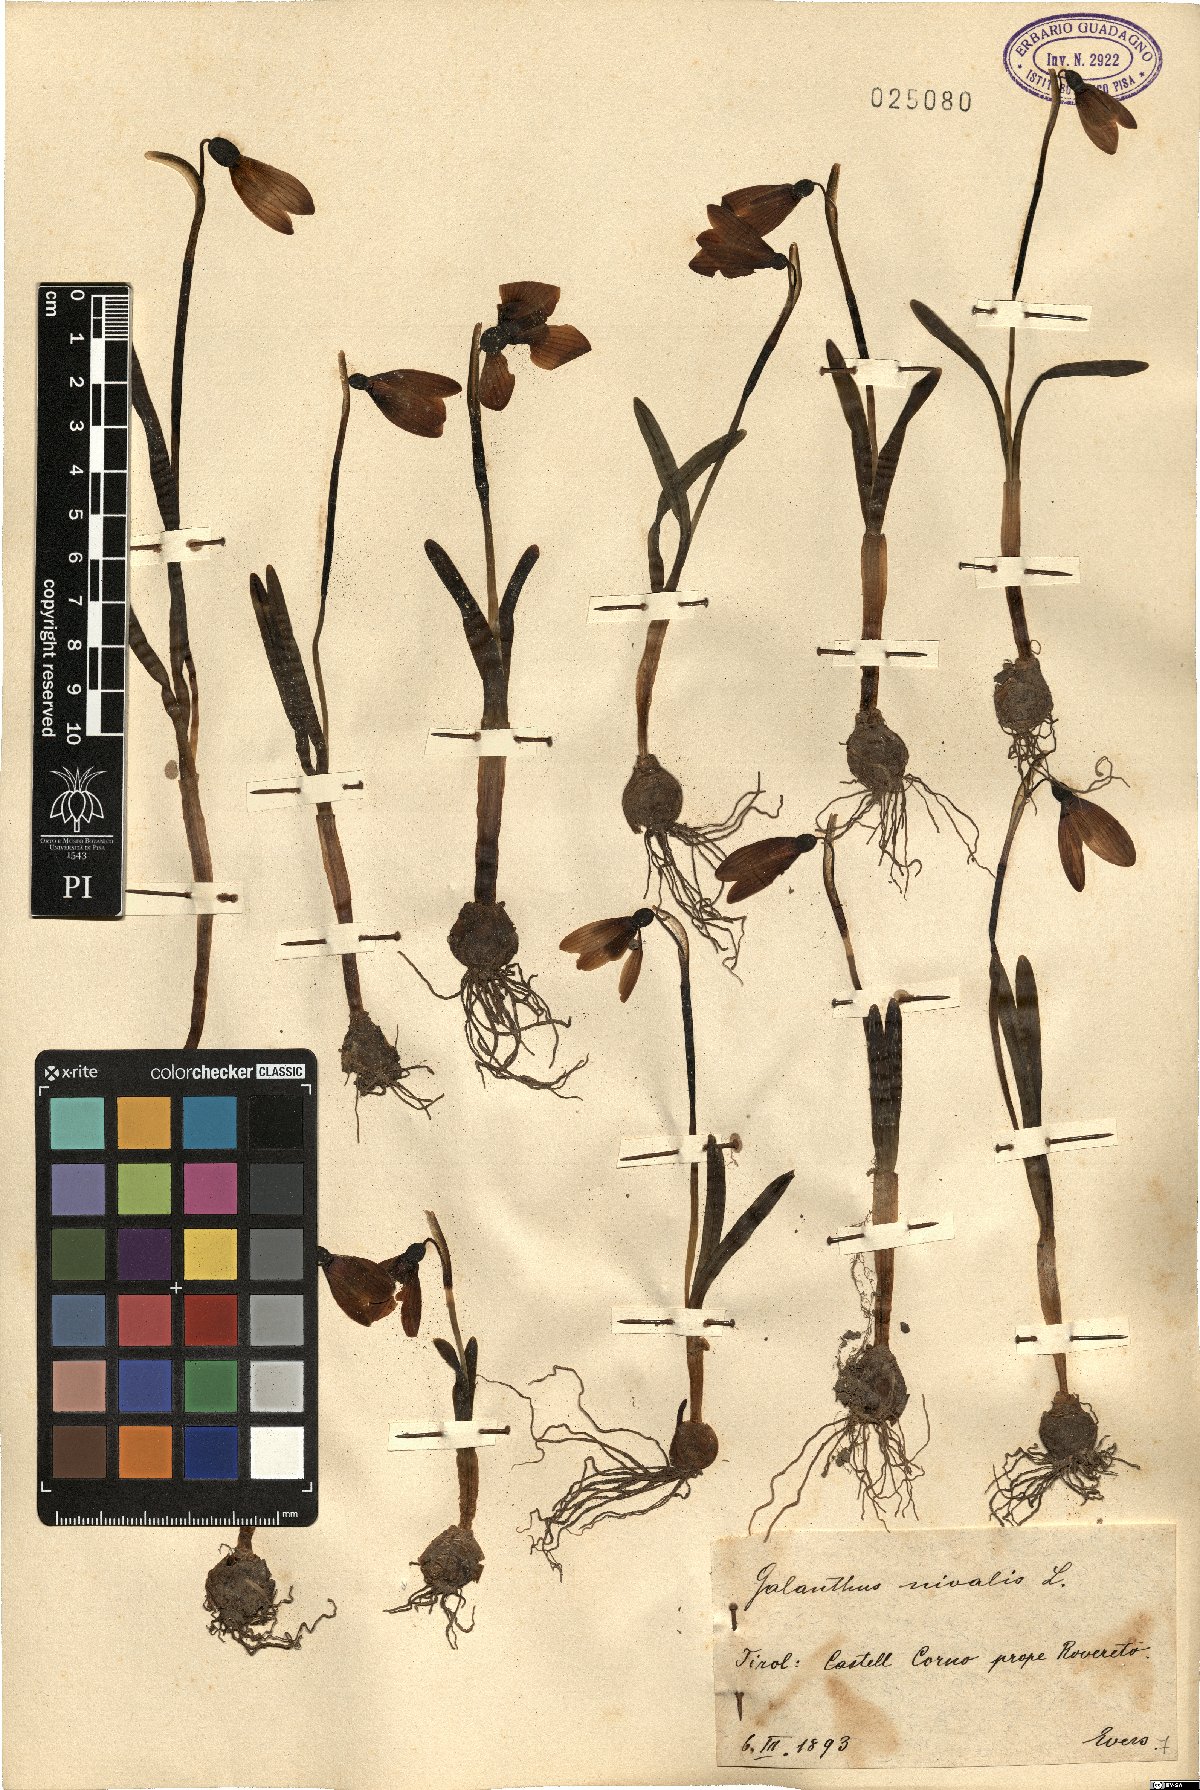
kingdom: Plantae
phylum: Tracheophyta
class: Liliopsida
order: Asparagales
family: Amaryllidaceae
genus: Galanthus
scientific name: Galanthus nivalis
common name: Snowdrop
